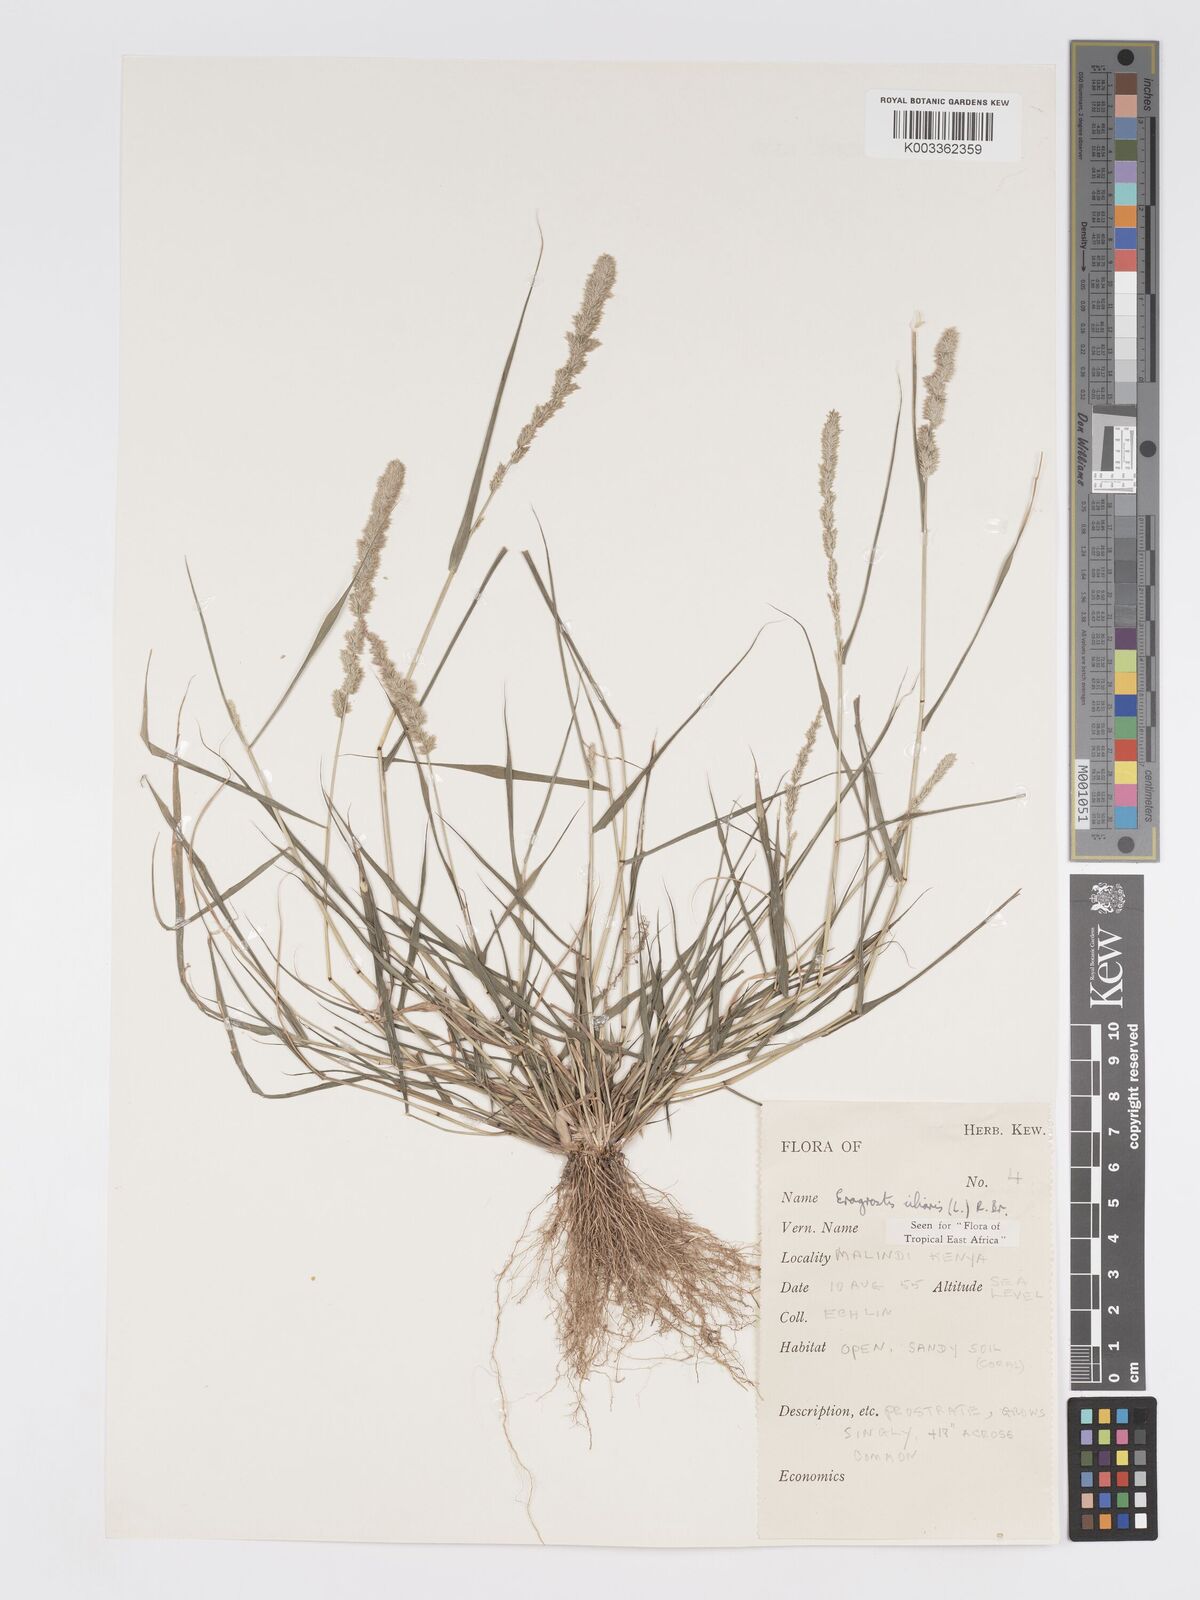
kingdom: Plantae
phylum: Tracheophyta
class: Liliopsida
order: Poales
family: Poaceae
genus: Eragrostis
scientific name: Eragrostis ciliaris
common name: Gophertail lovegrass
